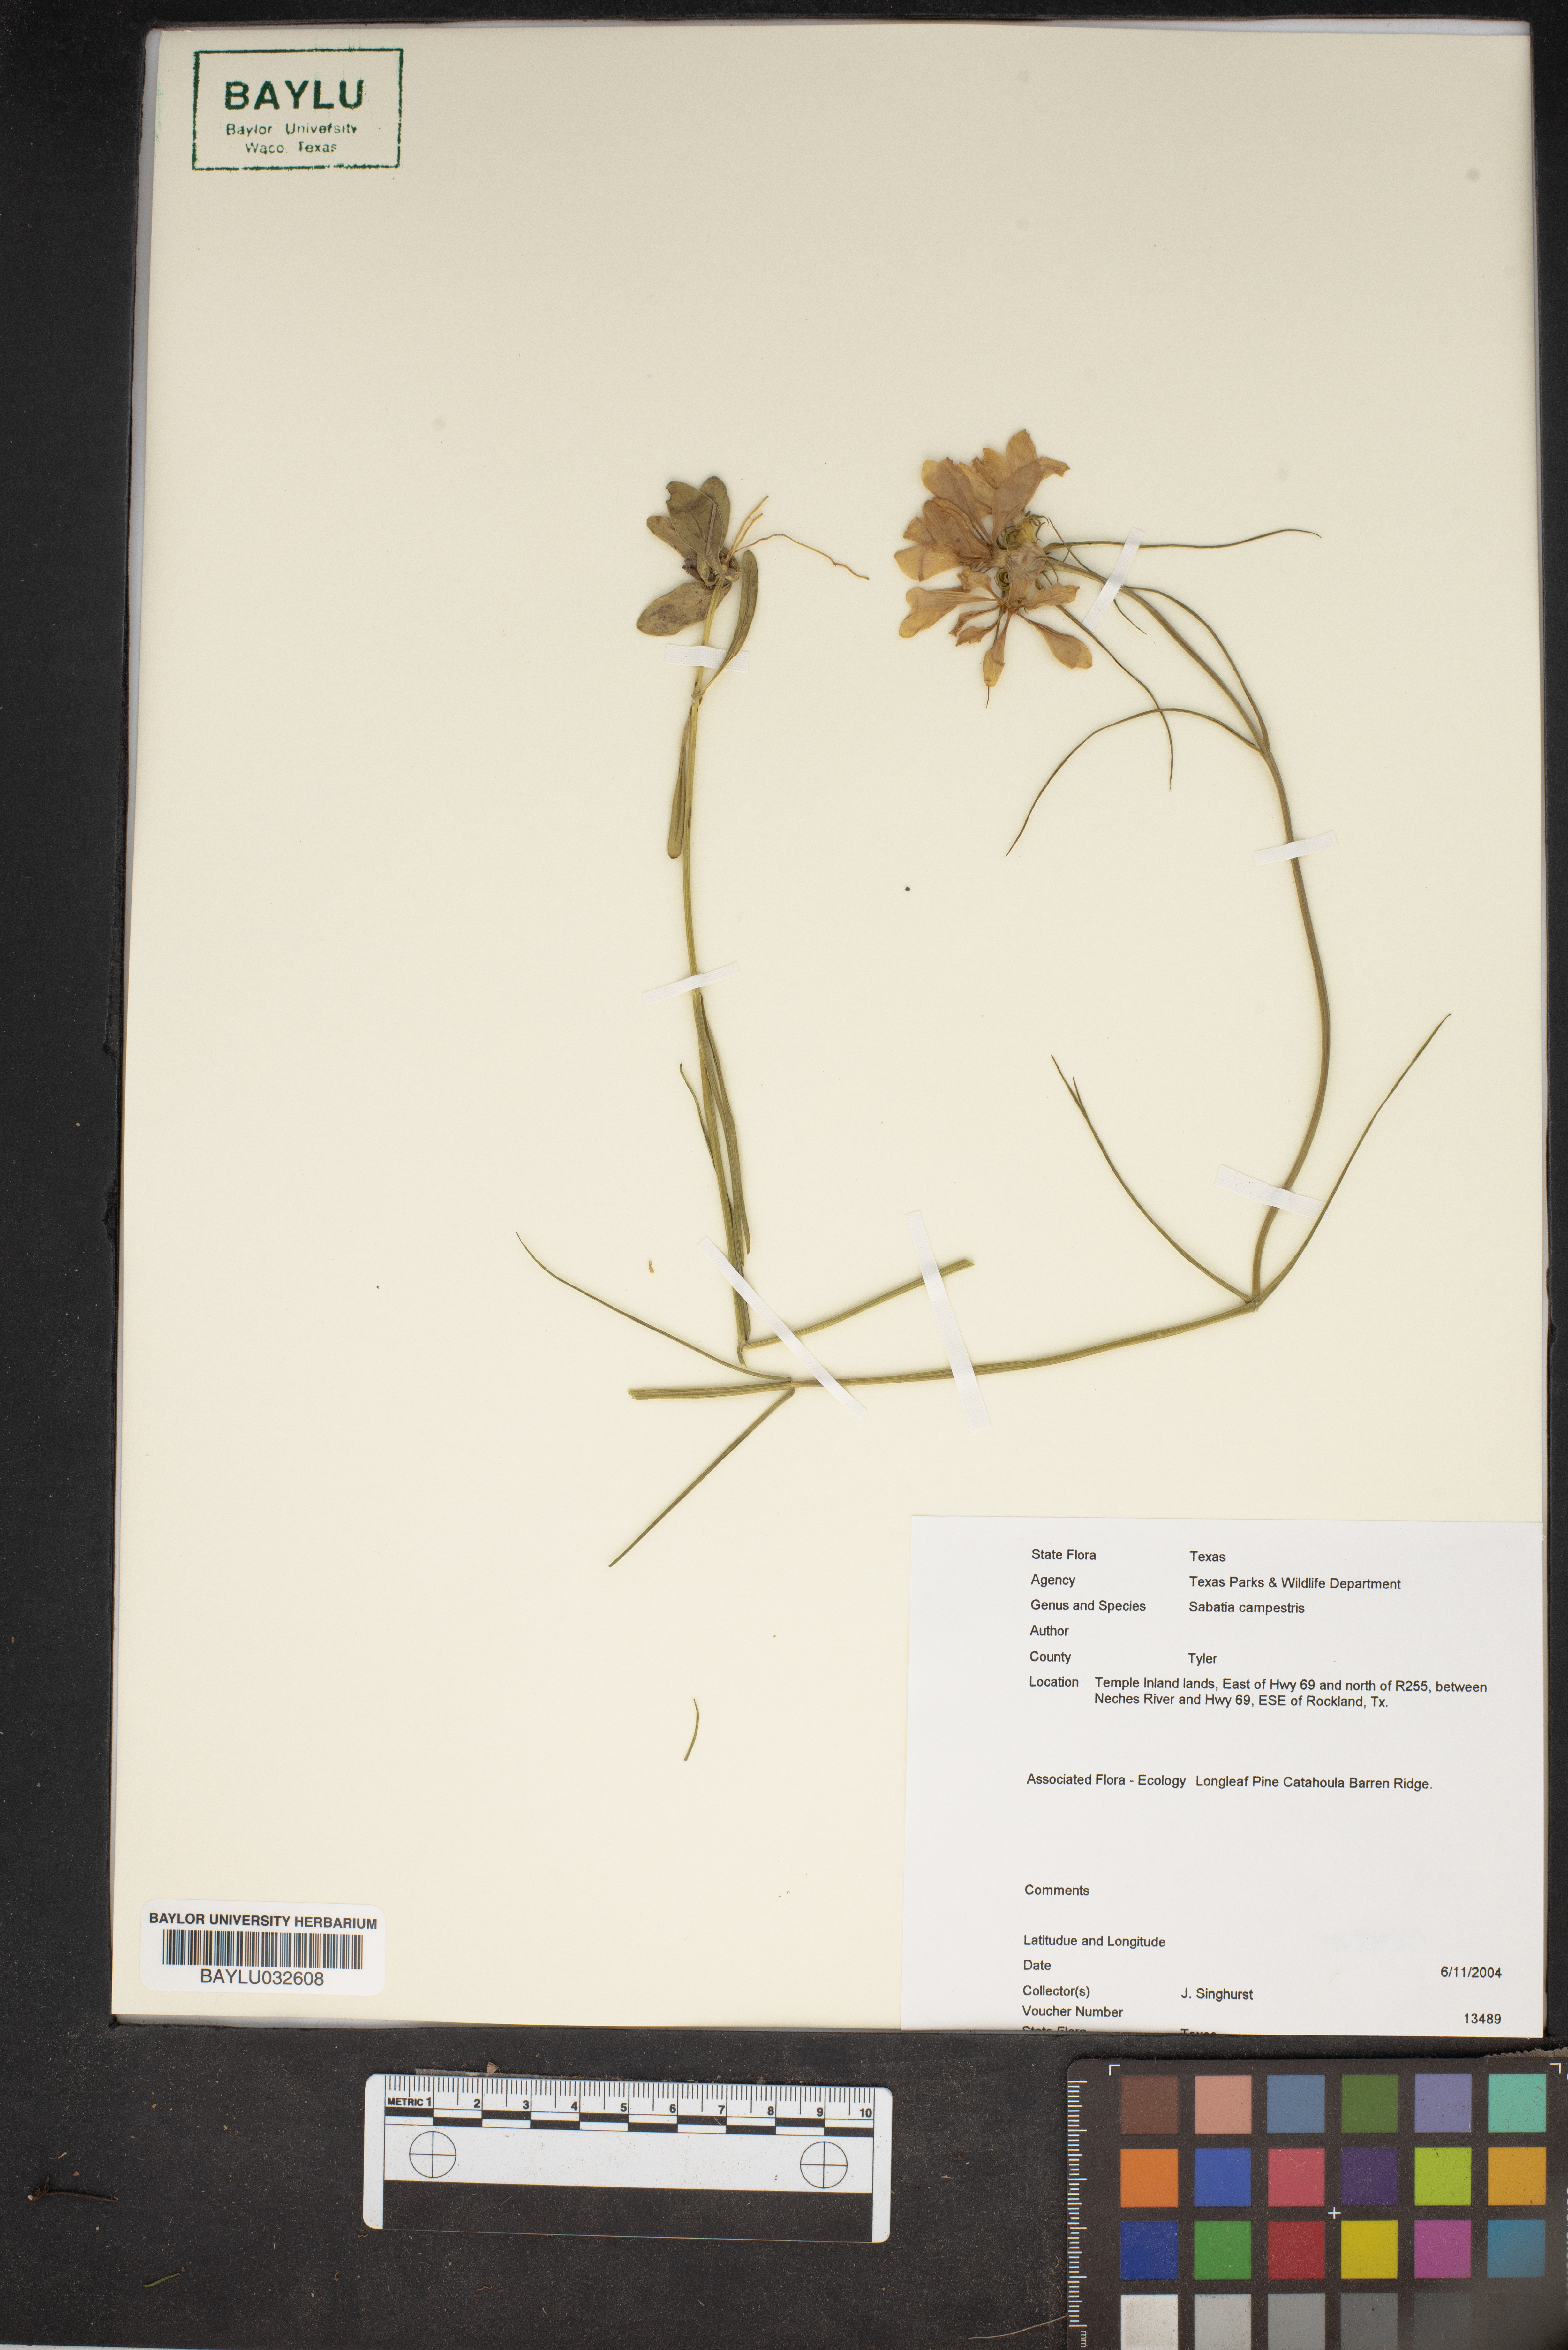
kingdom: Plantae
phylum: Tracheophyta
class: Magnoliopsida
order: Gentianales
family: Gentianaceae
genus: Sabatia
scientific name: Sabatia campestris
